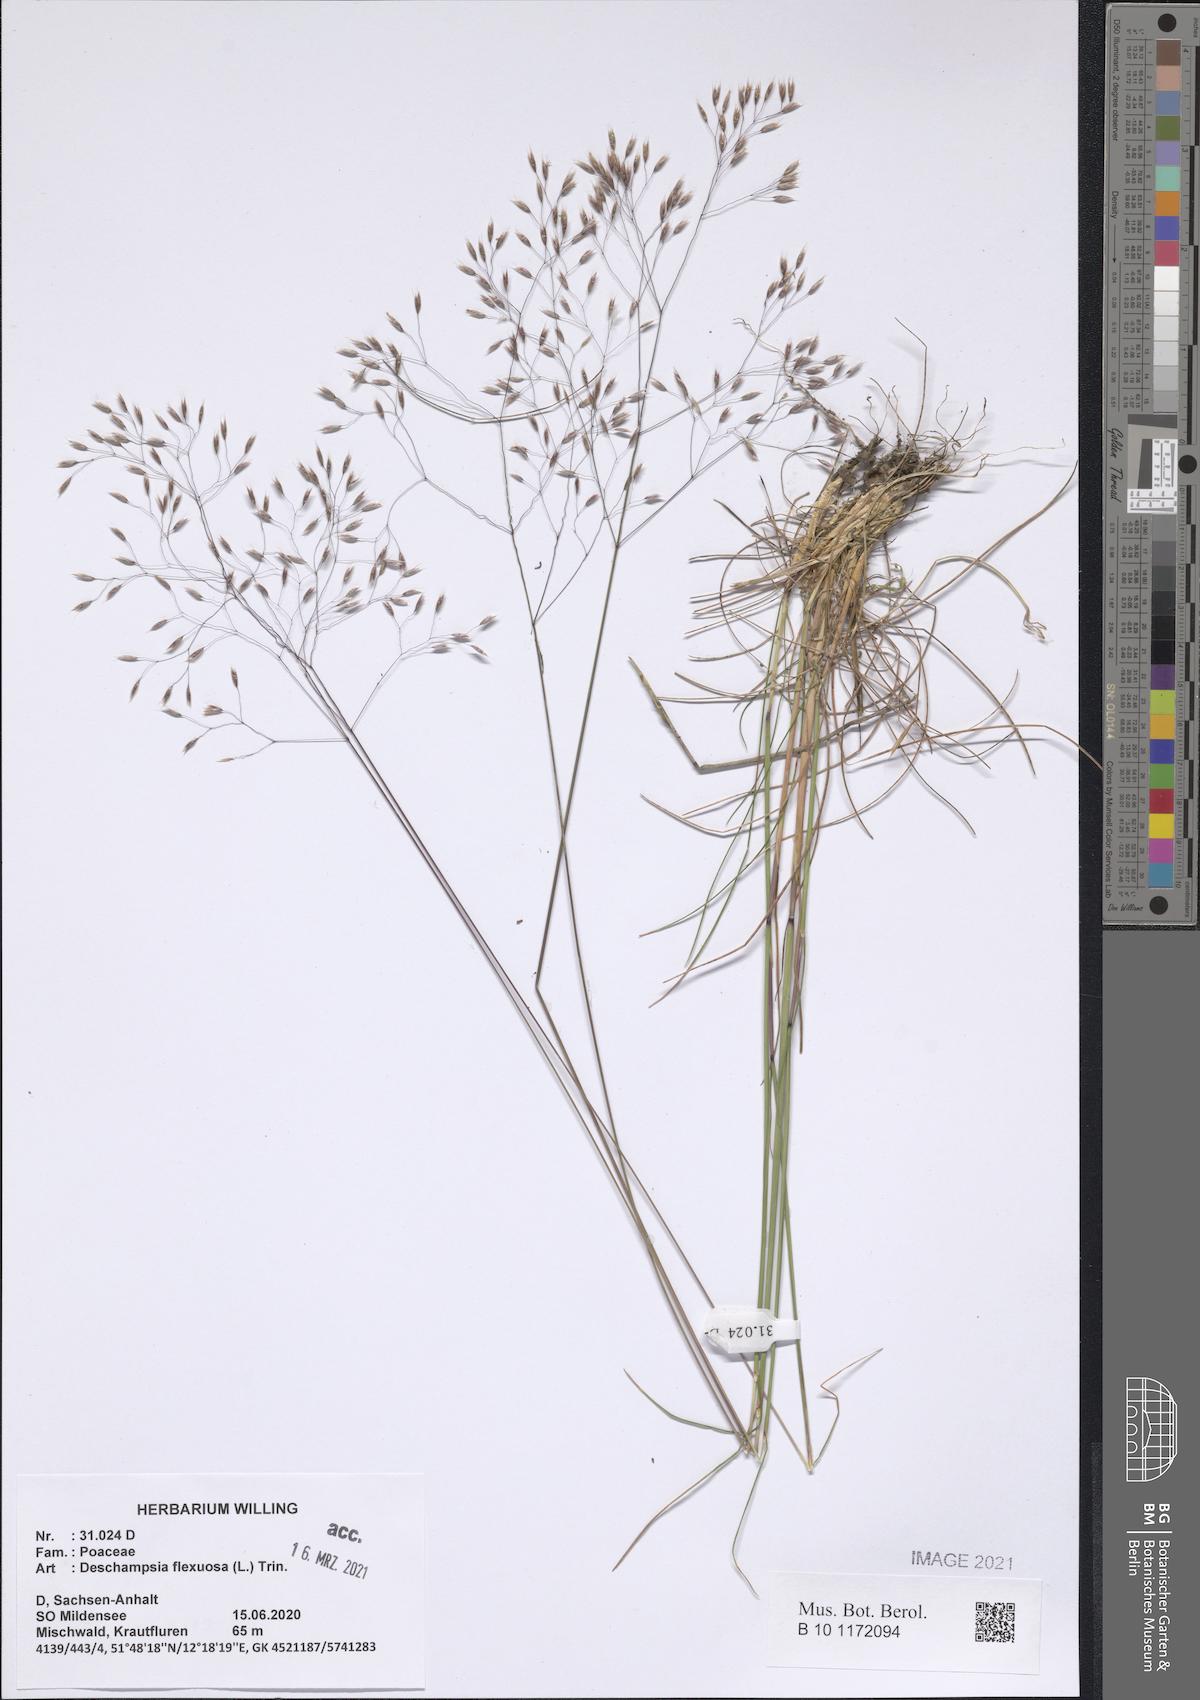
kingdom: Plantae
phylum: Tracheophyta
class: Liliopsida
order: Poales
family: Poaceae
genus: Avenella
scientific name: Avenella flexuosa
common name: Wavy hairgrass
